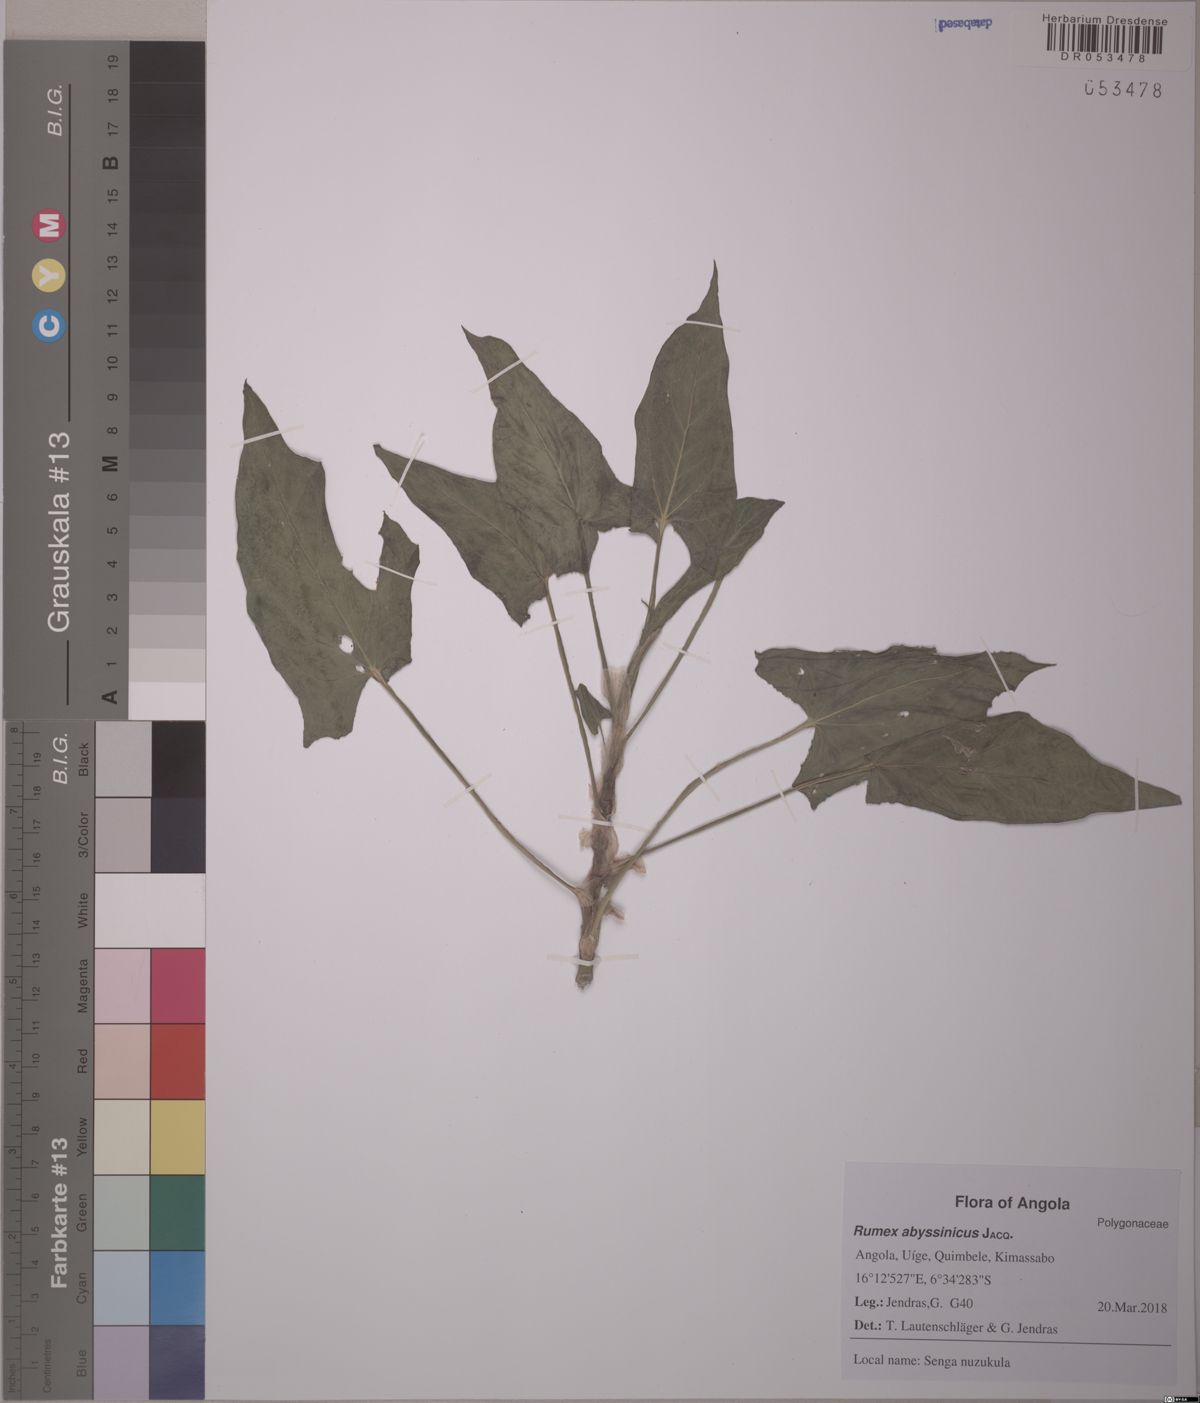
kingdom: Plantae
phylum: Tracheophyta
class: Magnoliopsida
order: Caryophyllales
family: Polygonaceae
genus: Rumex
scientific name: Rumex abyssinicus
